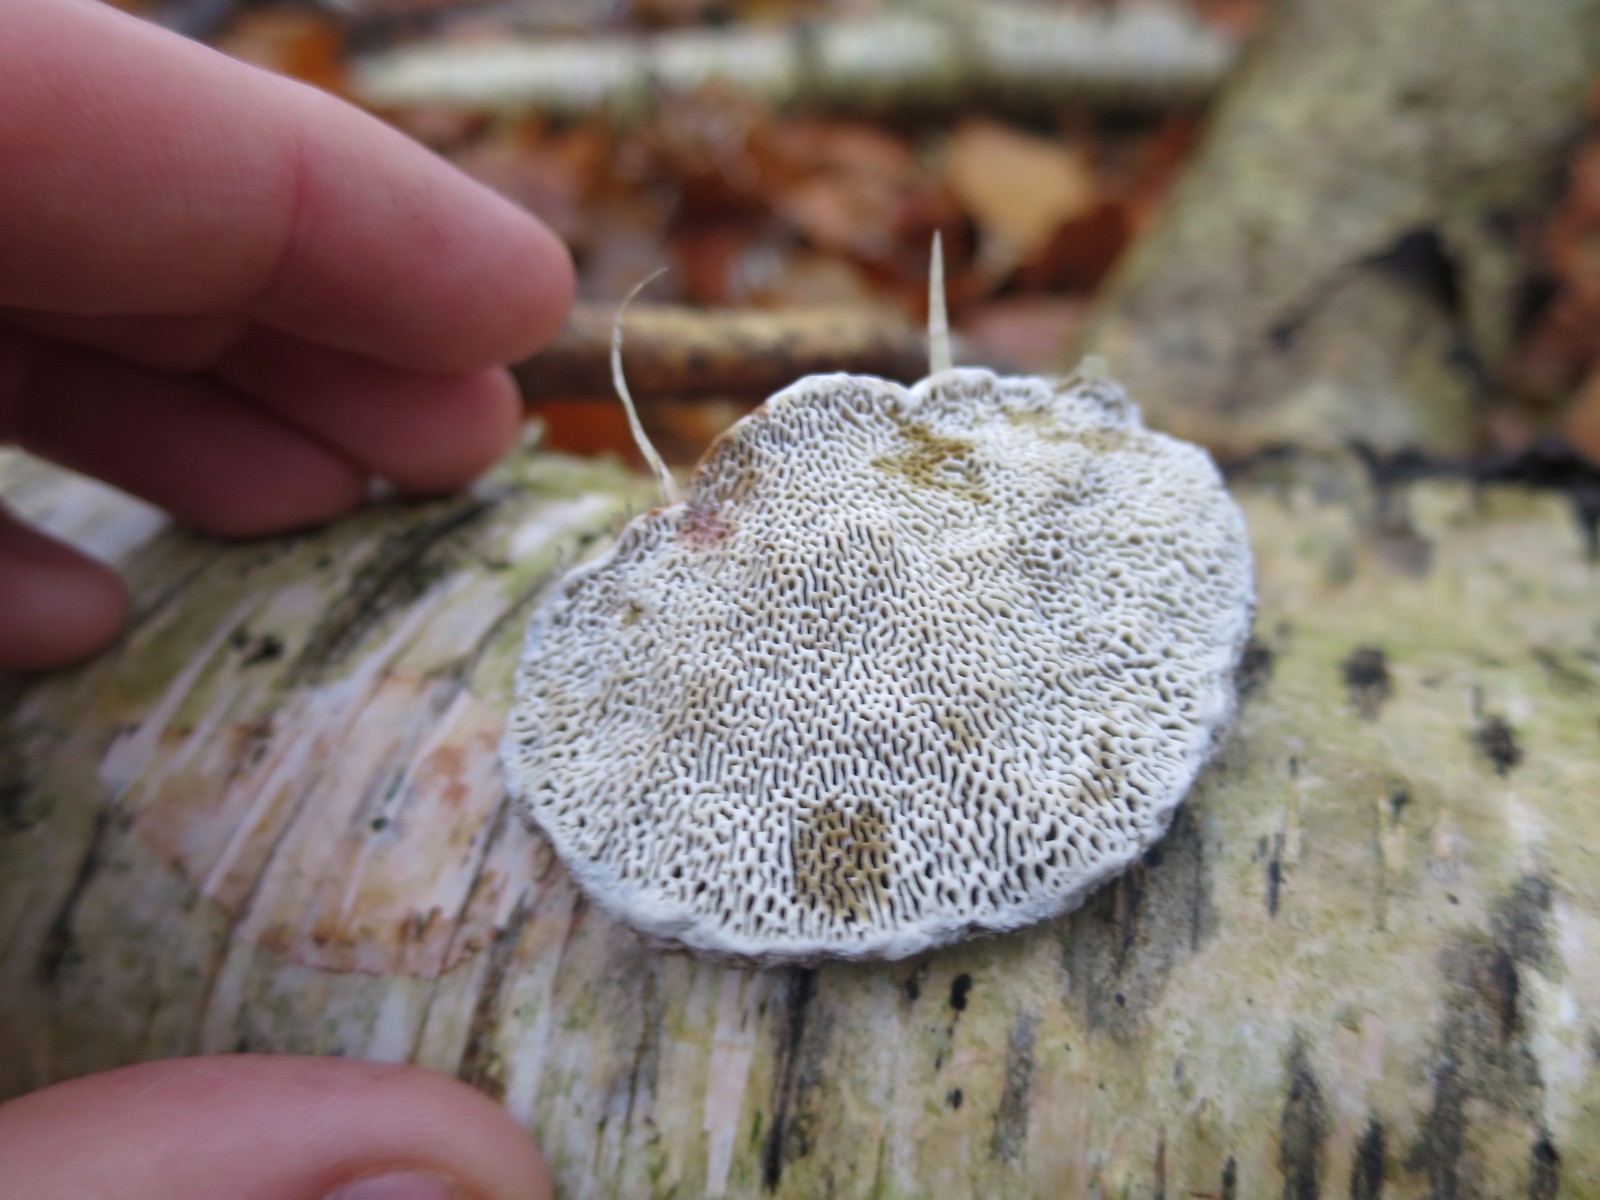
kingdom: Fungi
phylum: Basidiomycota
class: Agaricomycetes
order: Polyporales
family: Polyporaceae
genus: Daedaleopsis
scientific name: Daedaleopsis confragosa
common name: rødmende læderporesvamp
